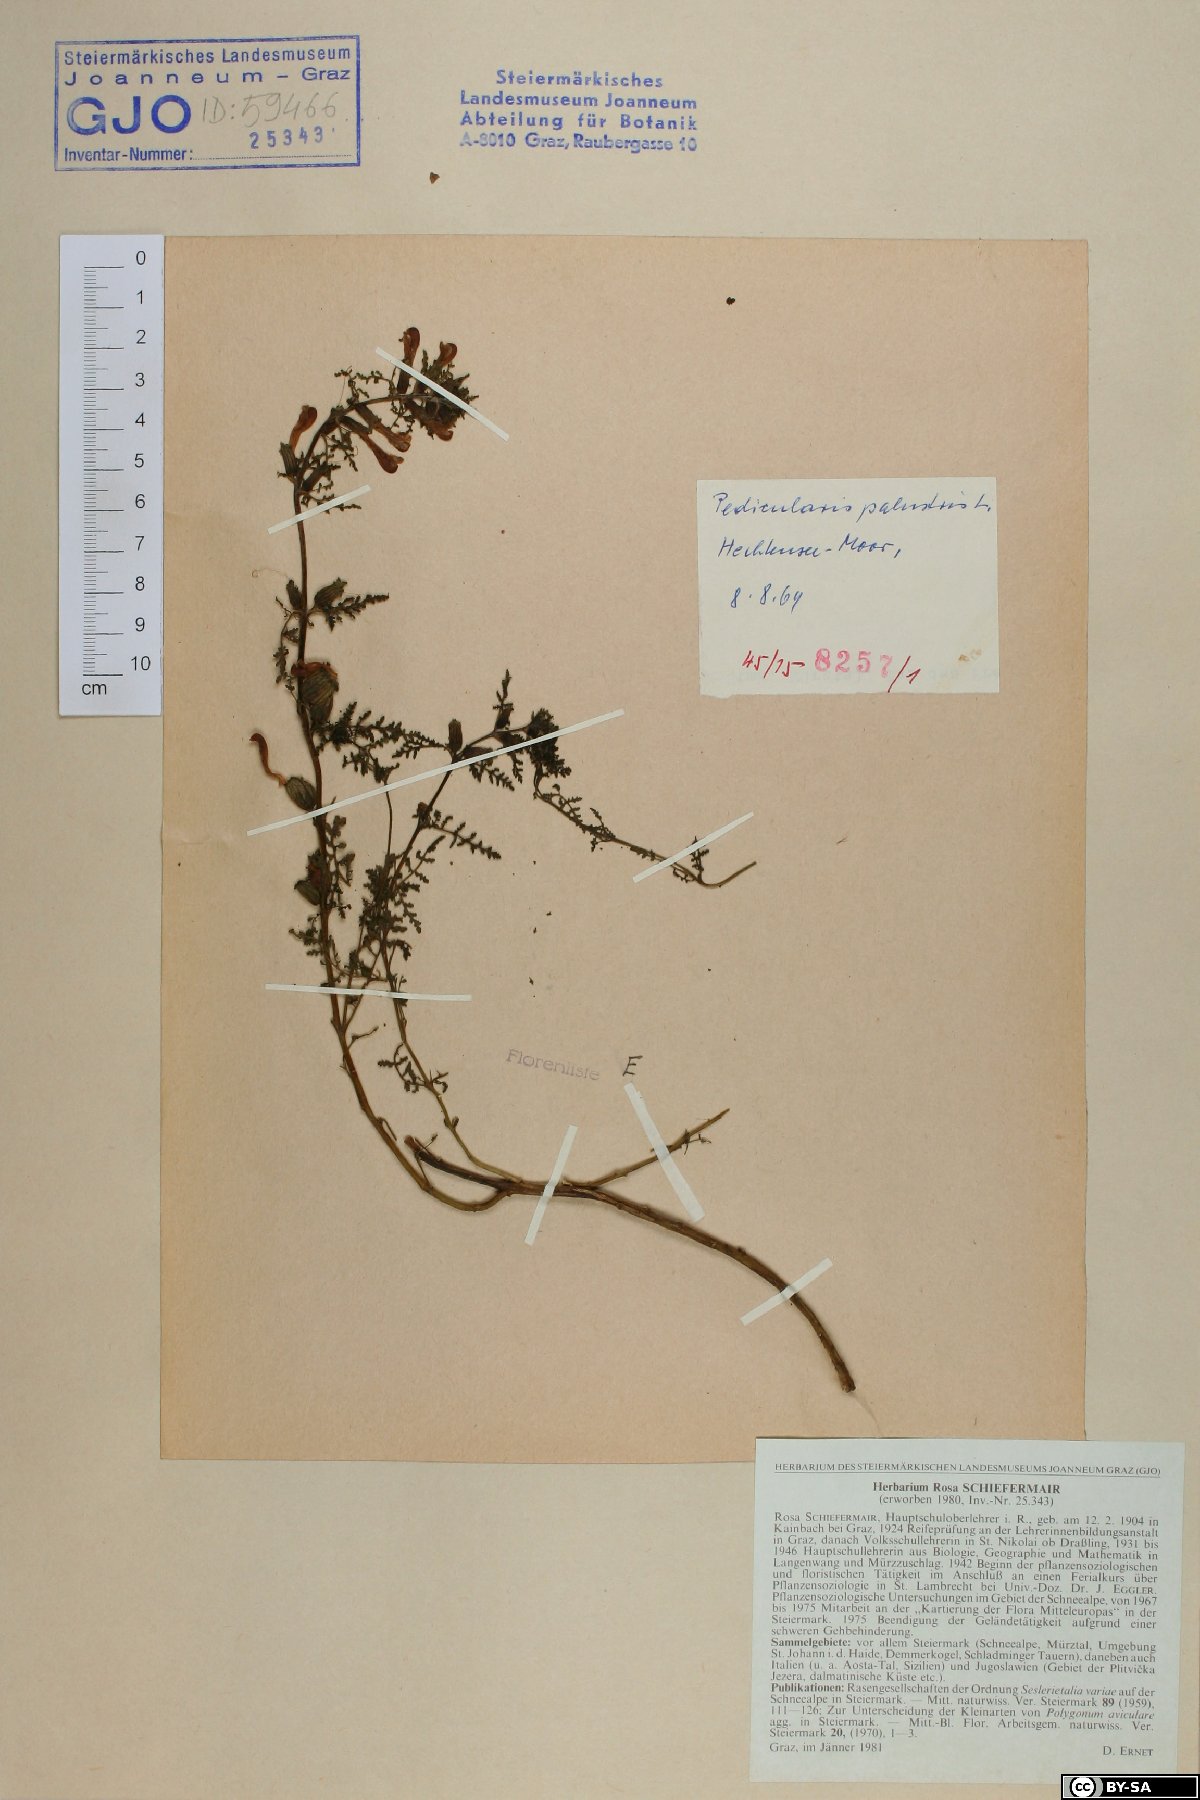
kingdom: Plantae
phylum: Tracheophyta
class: Magnoliopsida
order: Lamiales
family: Orobanchaceae
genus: Pedicularis
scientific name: Pedicularis palustris
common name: Marsh lousewort
